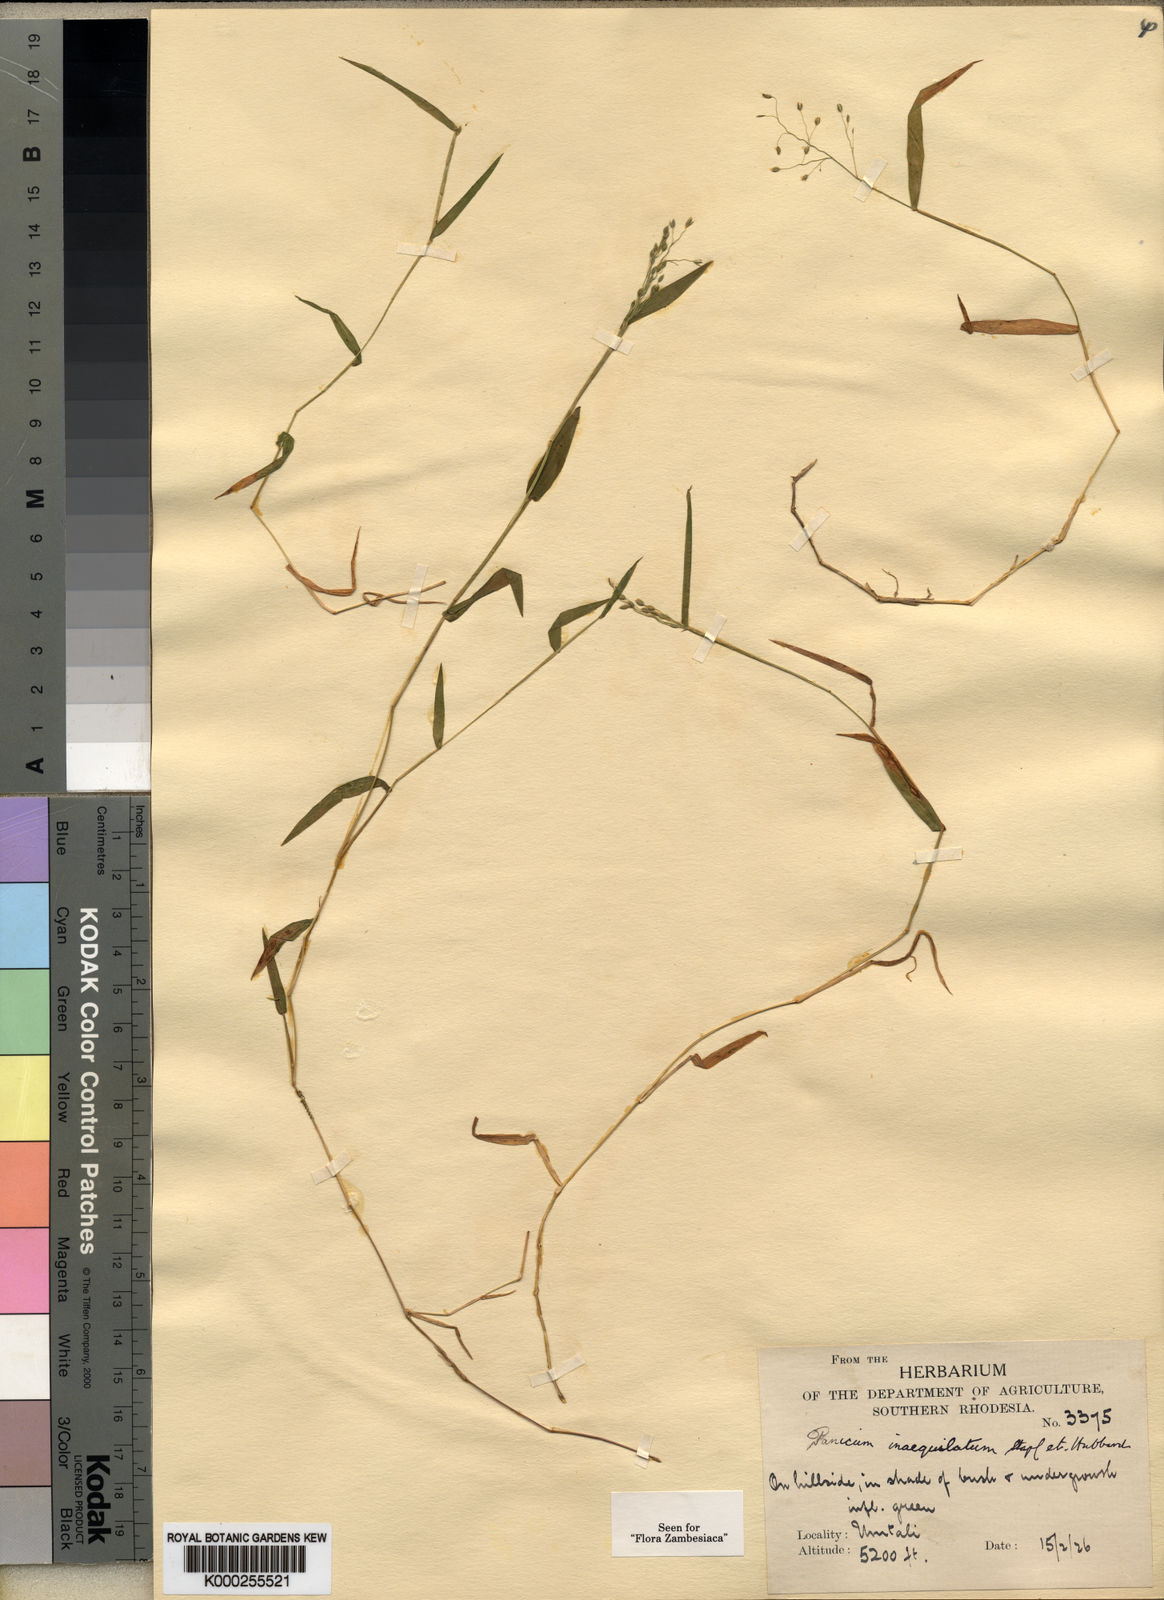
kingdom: Plantae
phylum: Tracheophyta
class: Liliopsida
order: Poales
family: Poaceae
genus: Panicum
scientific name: Panicum inaequilatum
